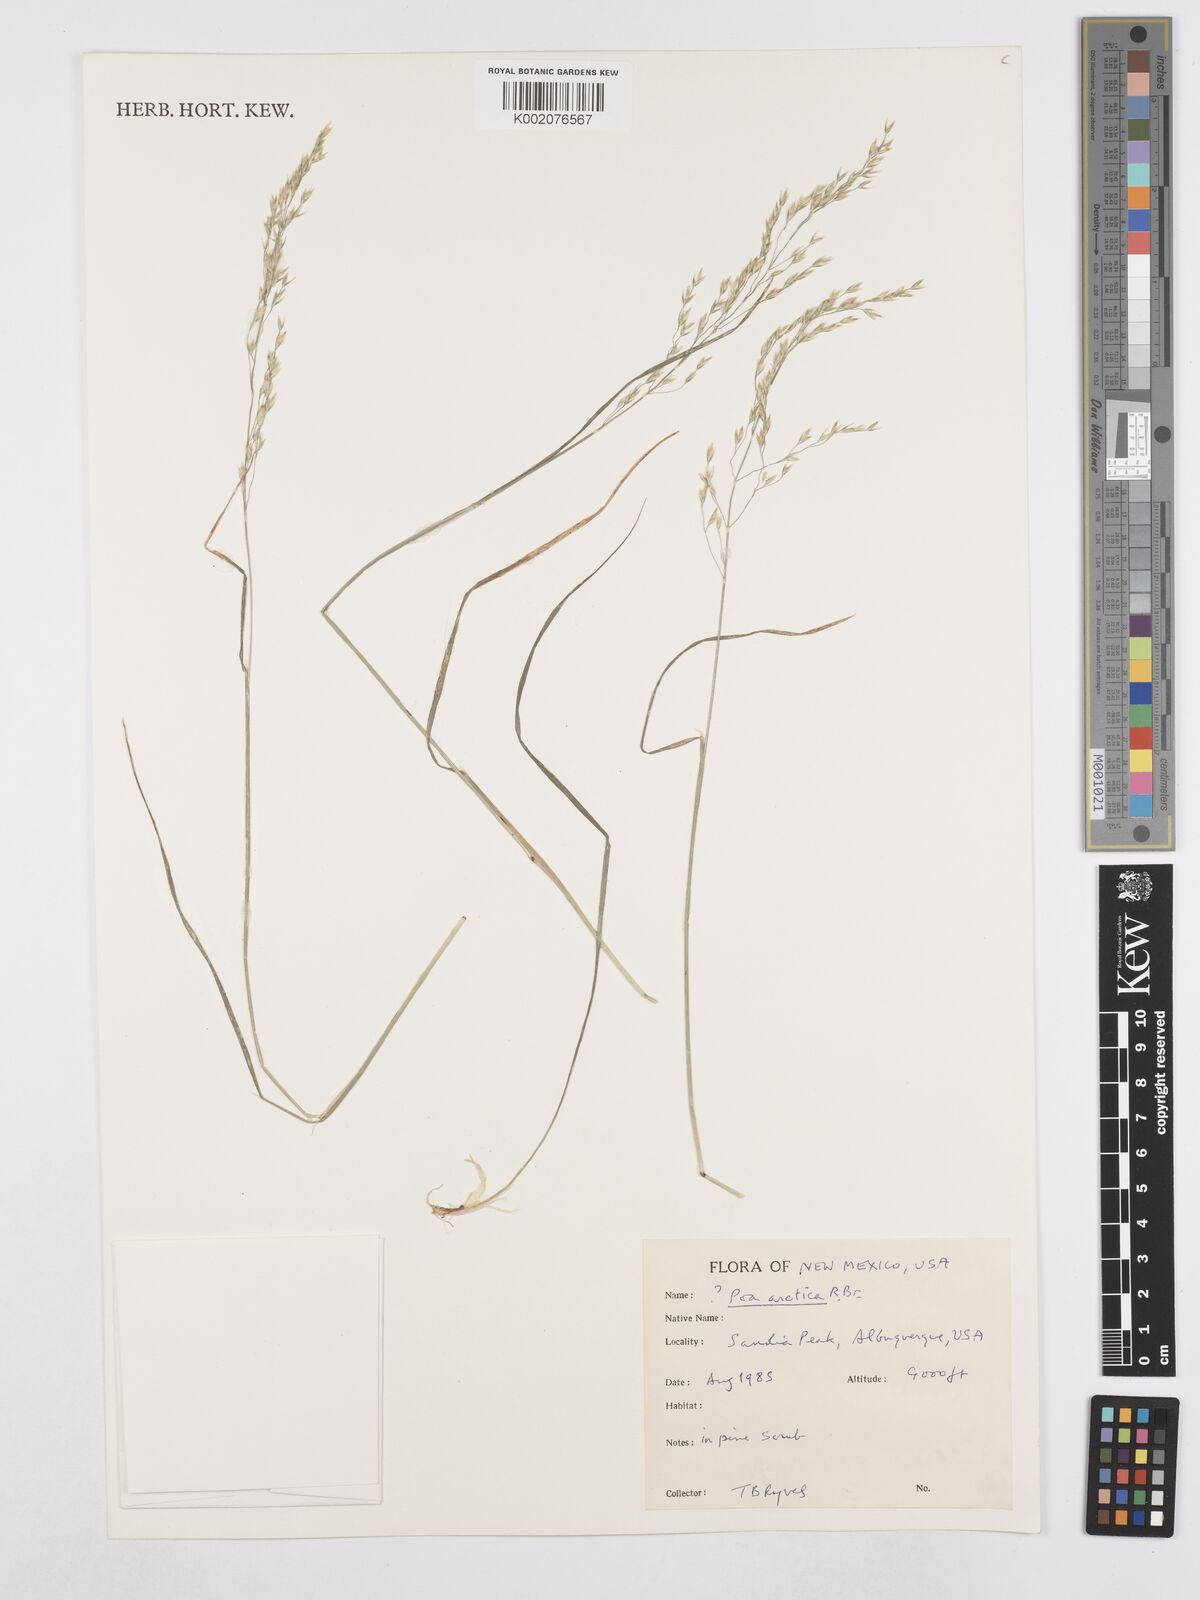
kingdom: Plantae
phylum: Tracheophyta
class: Liliopsida
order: Poales
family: Poaceae
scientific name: Poaceae
